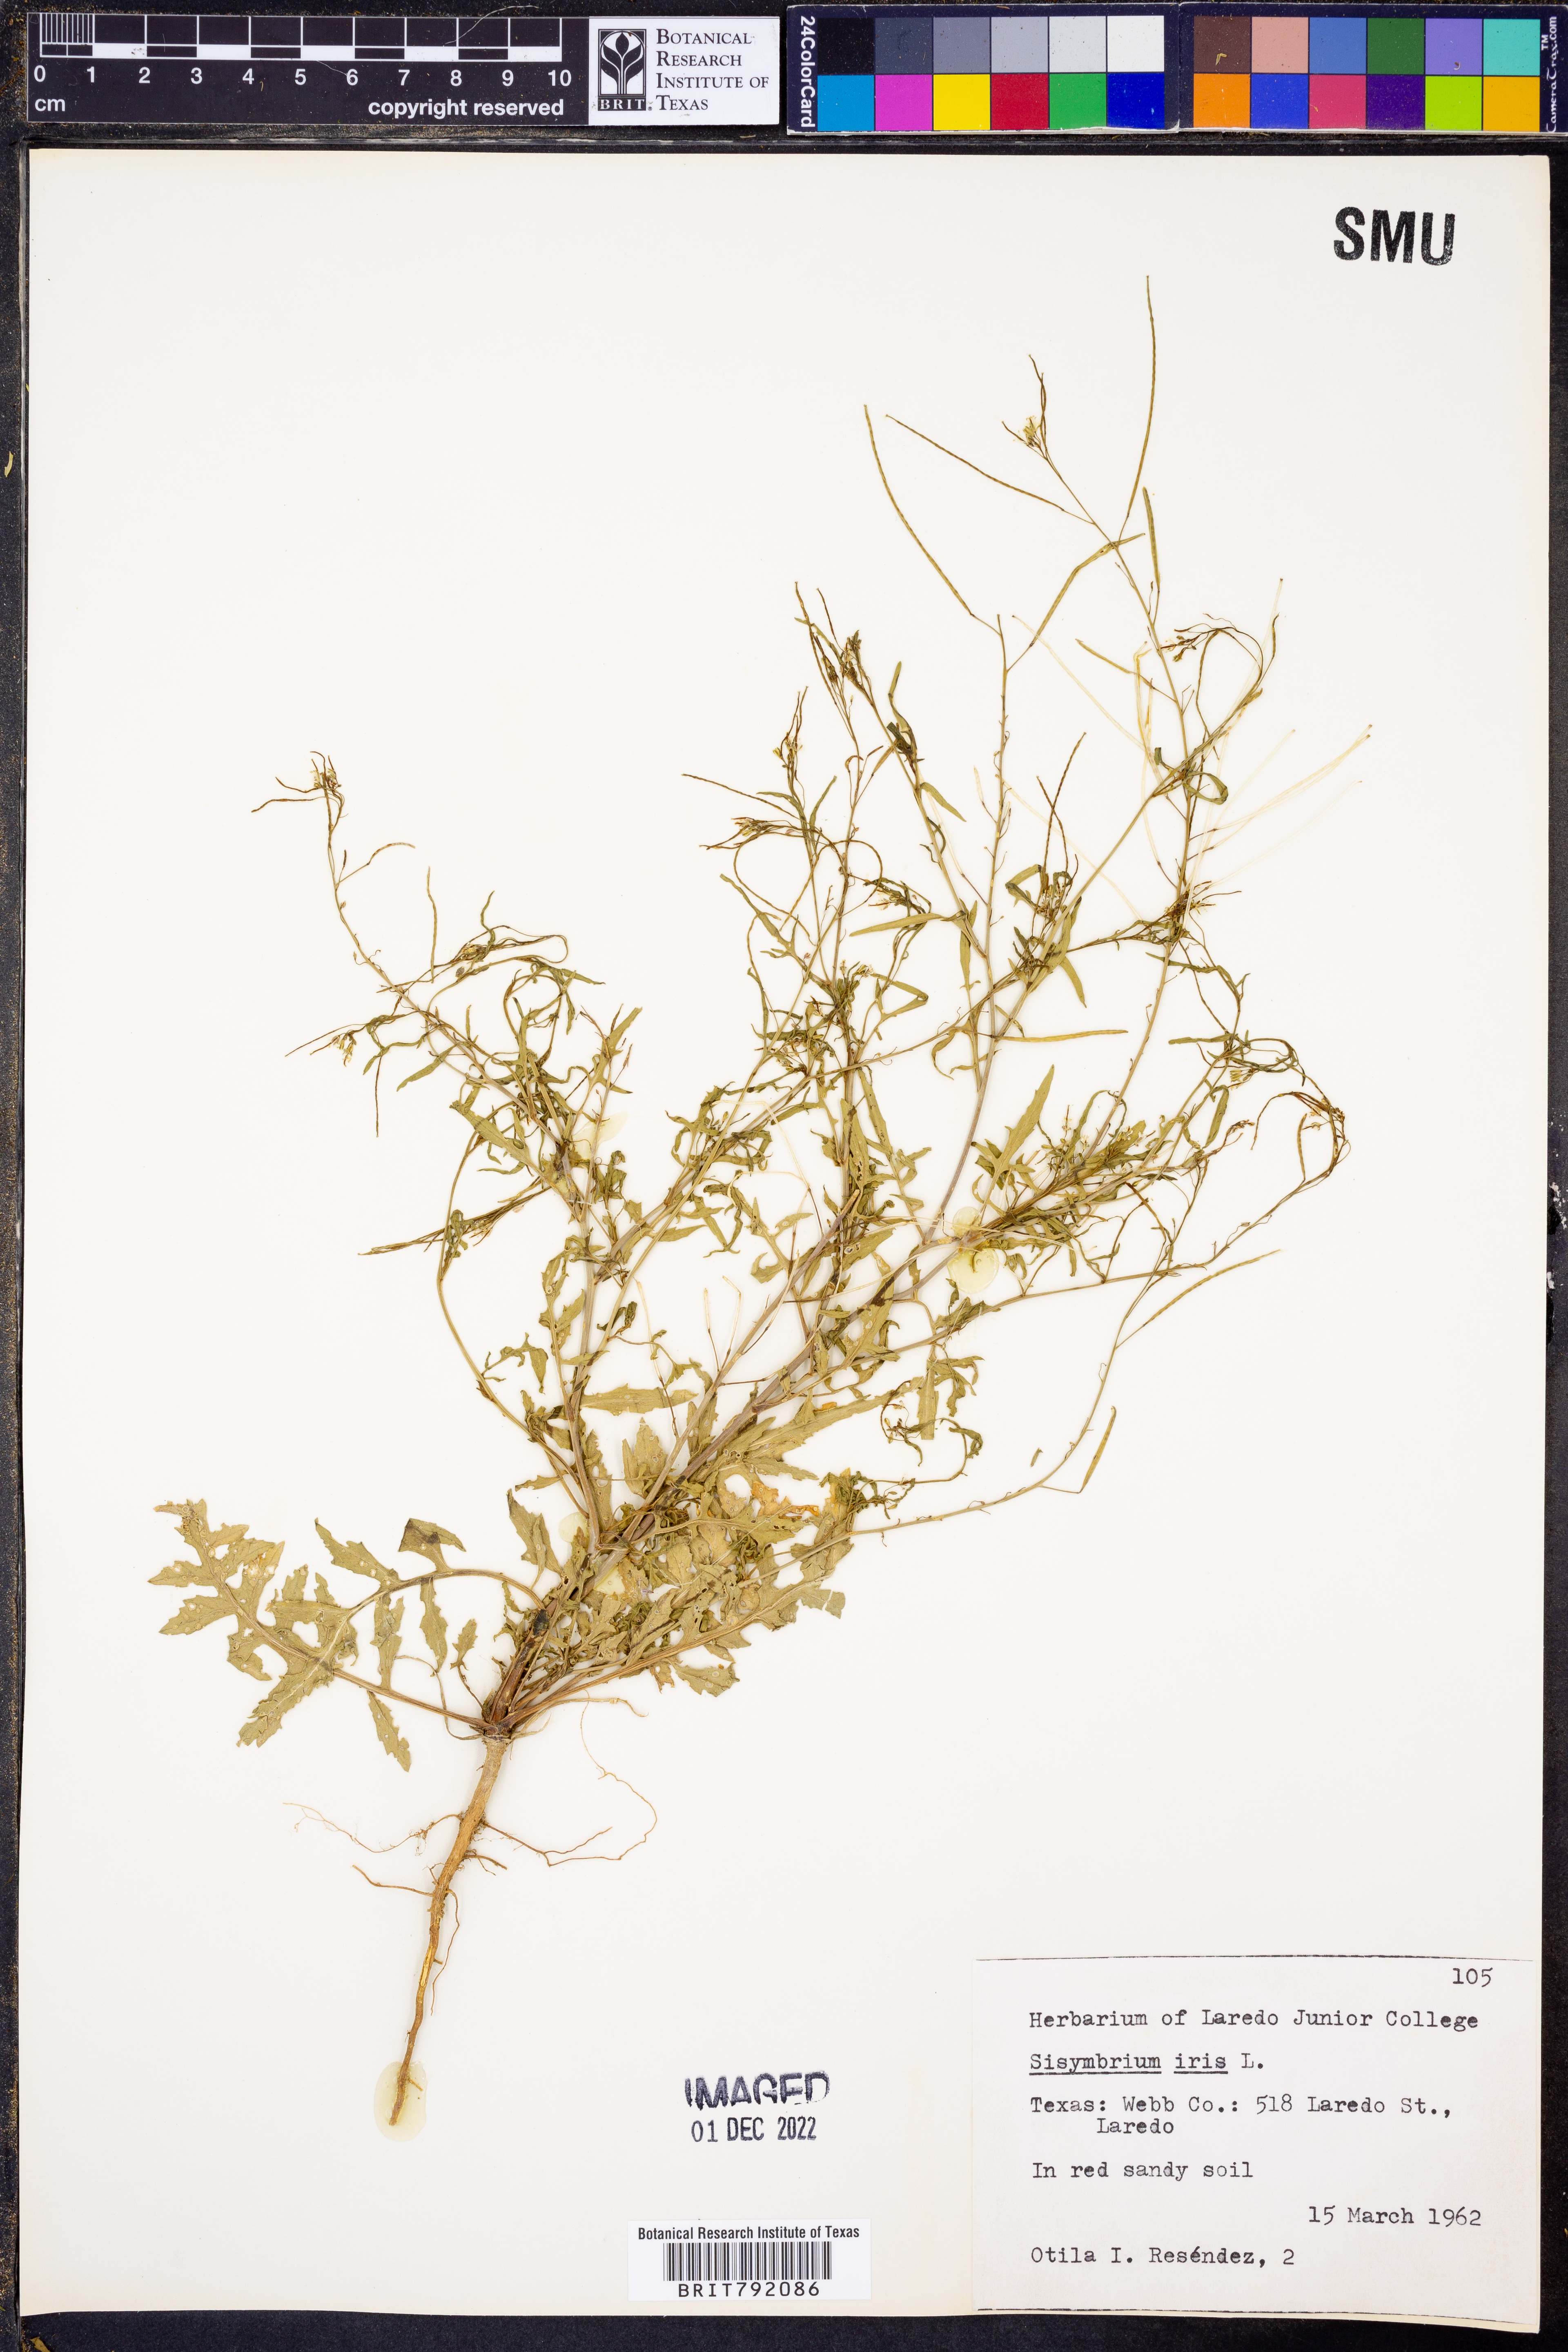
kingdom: Plantae
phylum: Tracheophyta
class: Magnoliopsida
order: Brassicales
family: Brassicaceae
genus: Sisymbrium
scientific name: Sisymbrium irio
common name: London rocket
